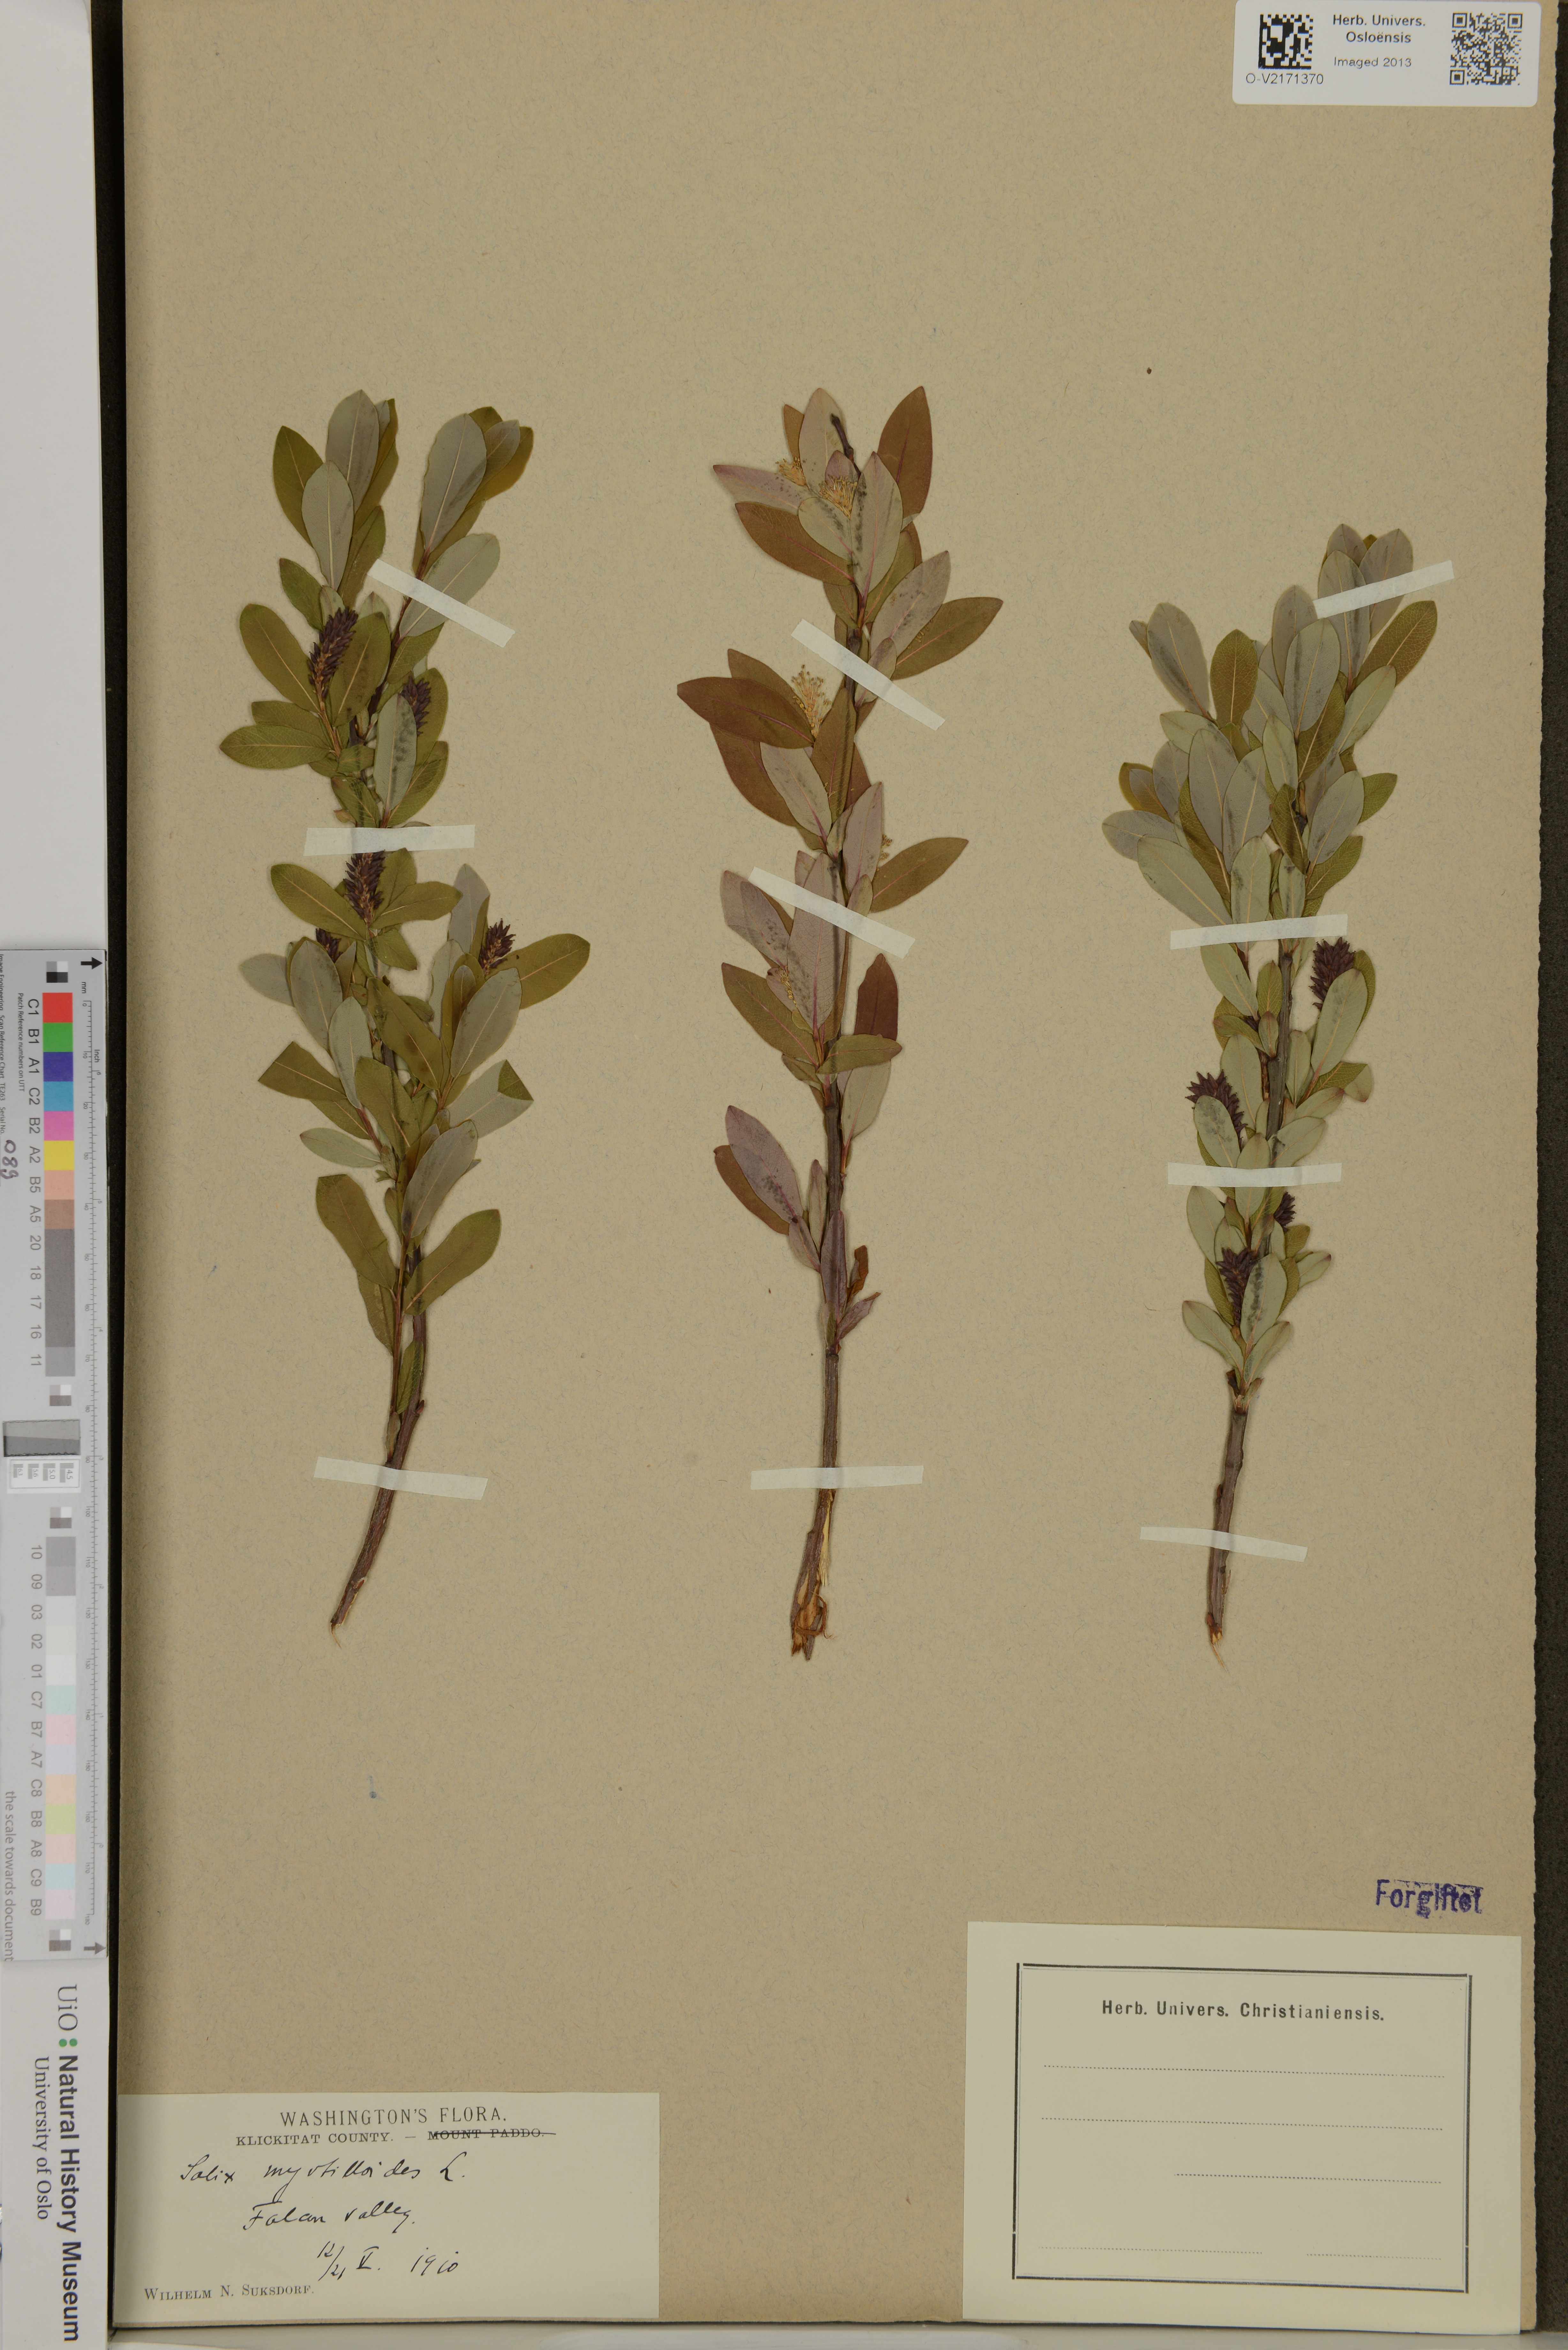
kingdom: Plantae
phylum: Tracheophyta
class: Magnoliopsida
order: Malpighiales
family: Salicaceae
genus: Salix
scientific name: Salix myrtillioides
